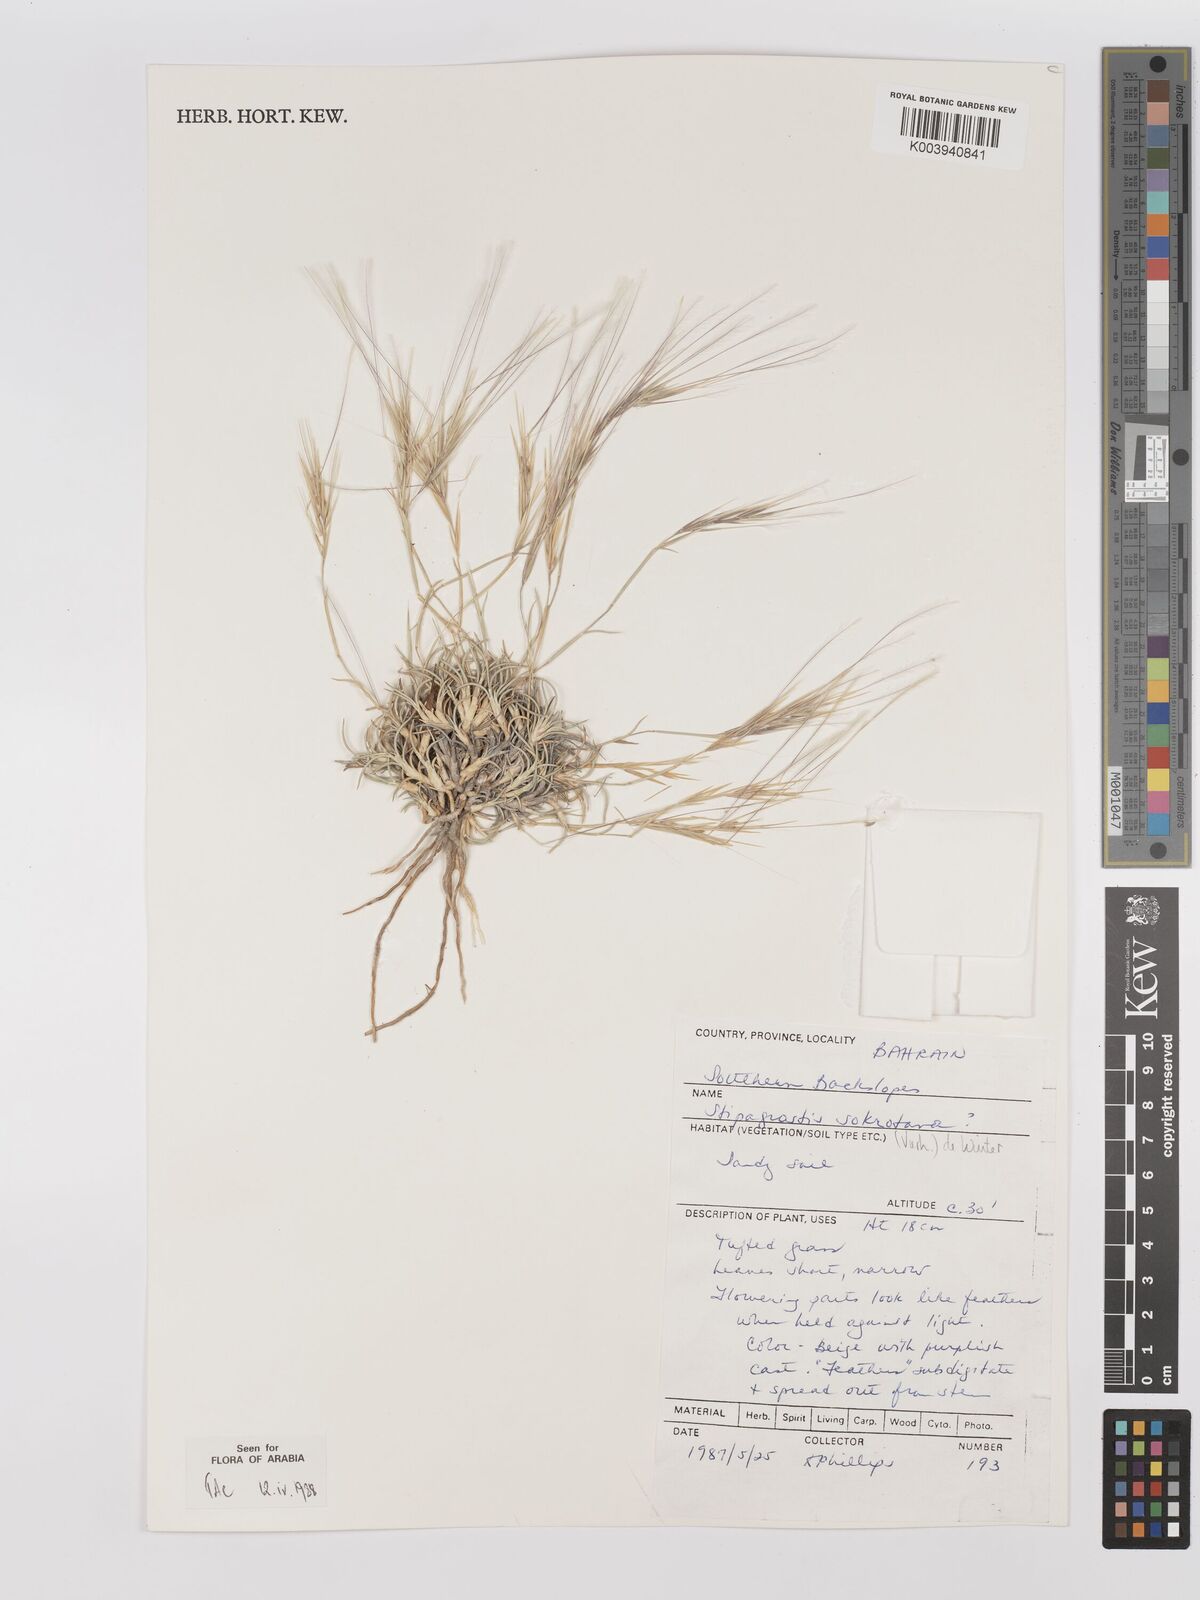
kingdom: Plantae
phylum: Tracheophyta
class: Liliopsida
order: Poales
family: Poaceae
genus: Stipagrostis
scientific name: Stipagrostis sokotrana
